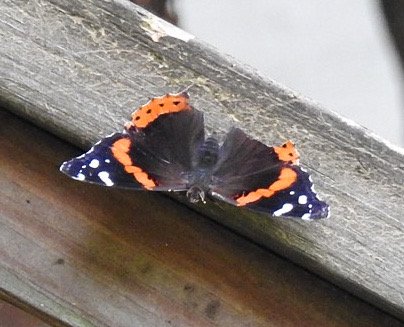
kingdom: Animalia
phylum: Arthropoda
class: Insecta
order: Lepidoptera
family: Nymphalidae
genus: Vanessa
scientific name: Vanessa atalanta
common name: Red Admiral
